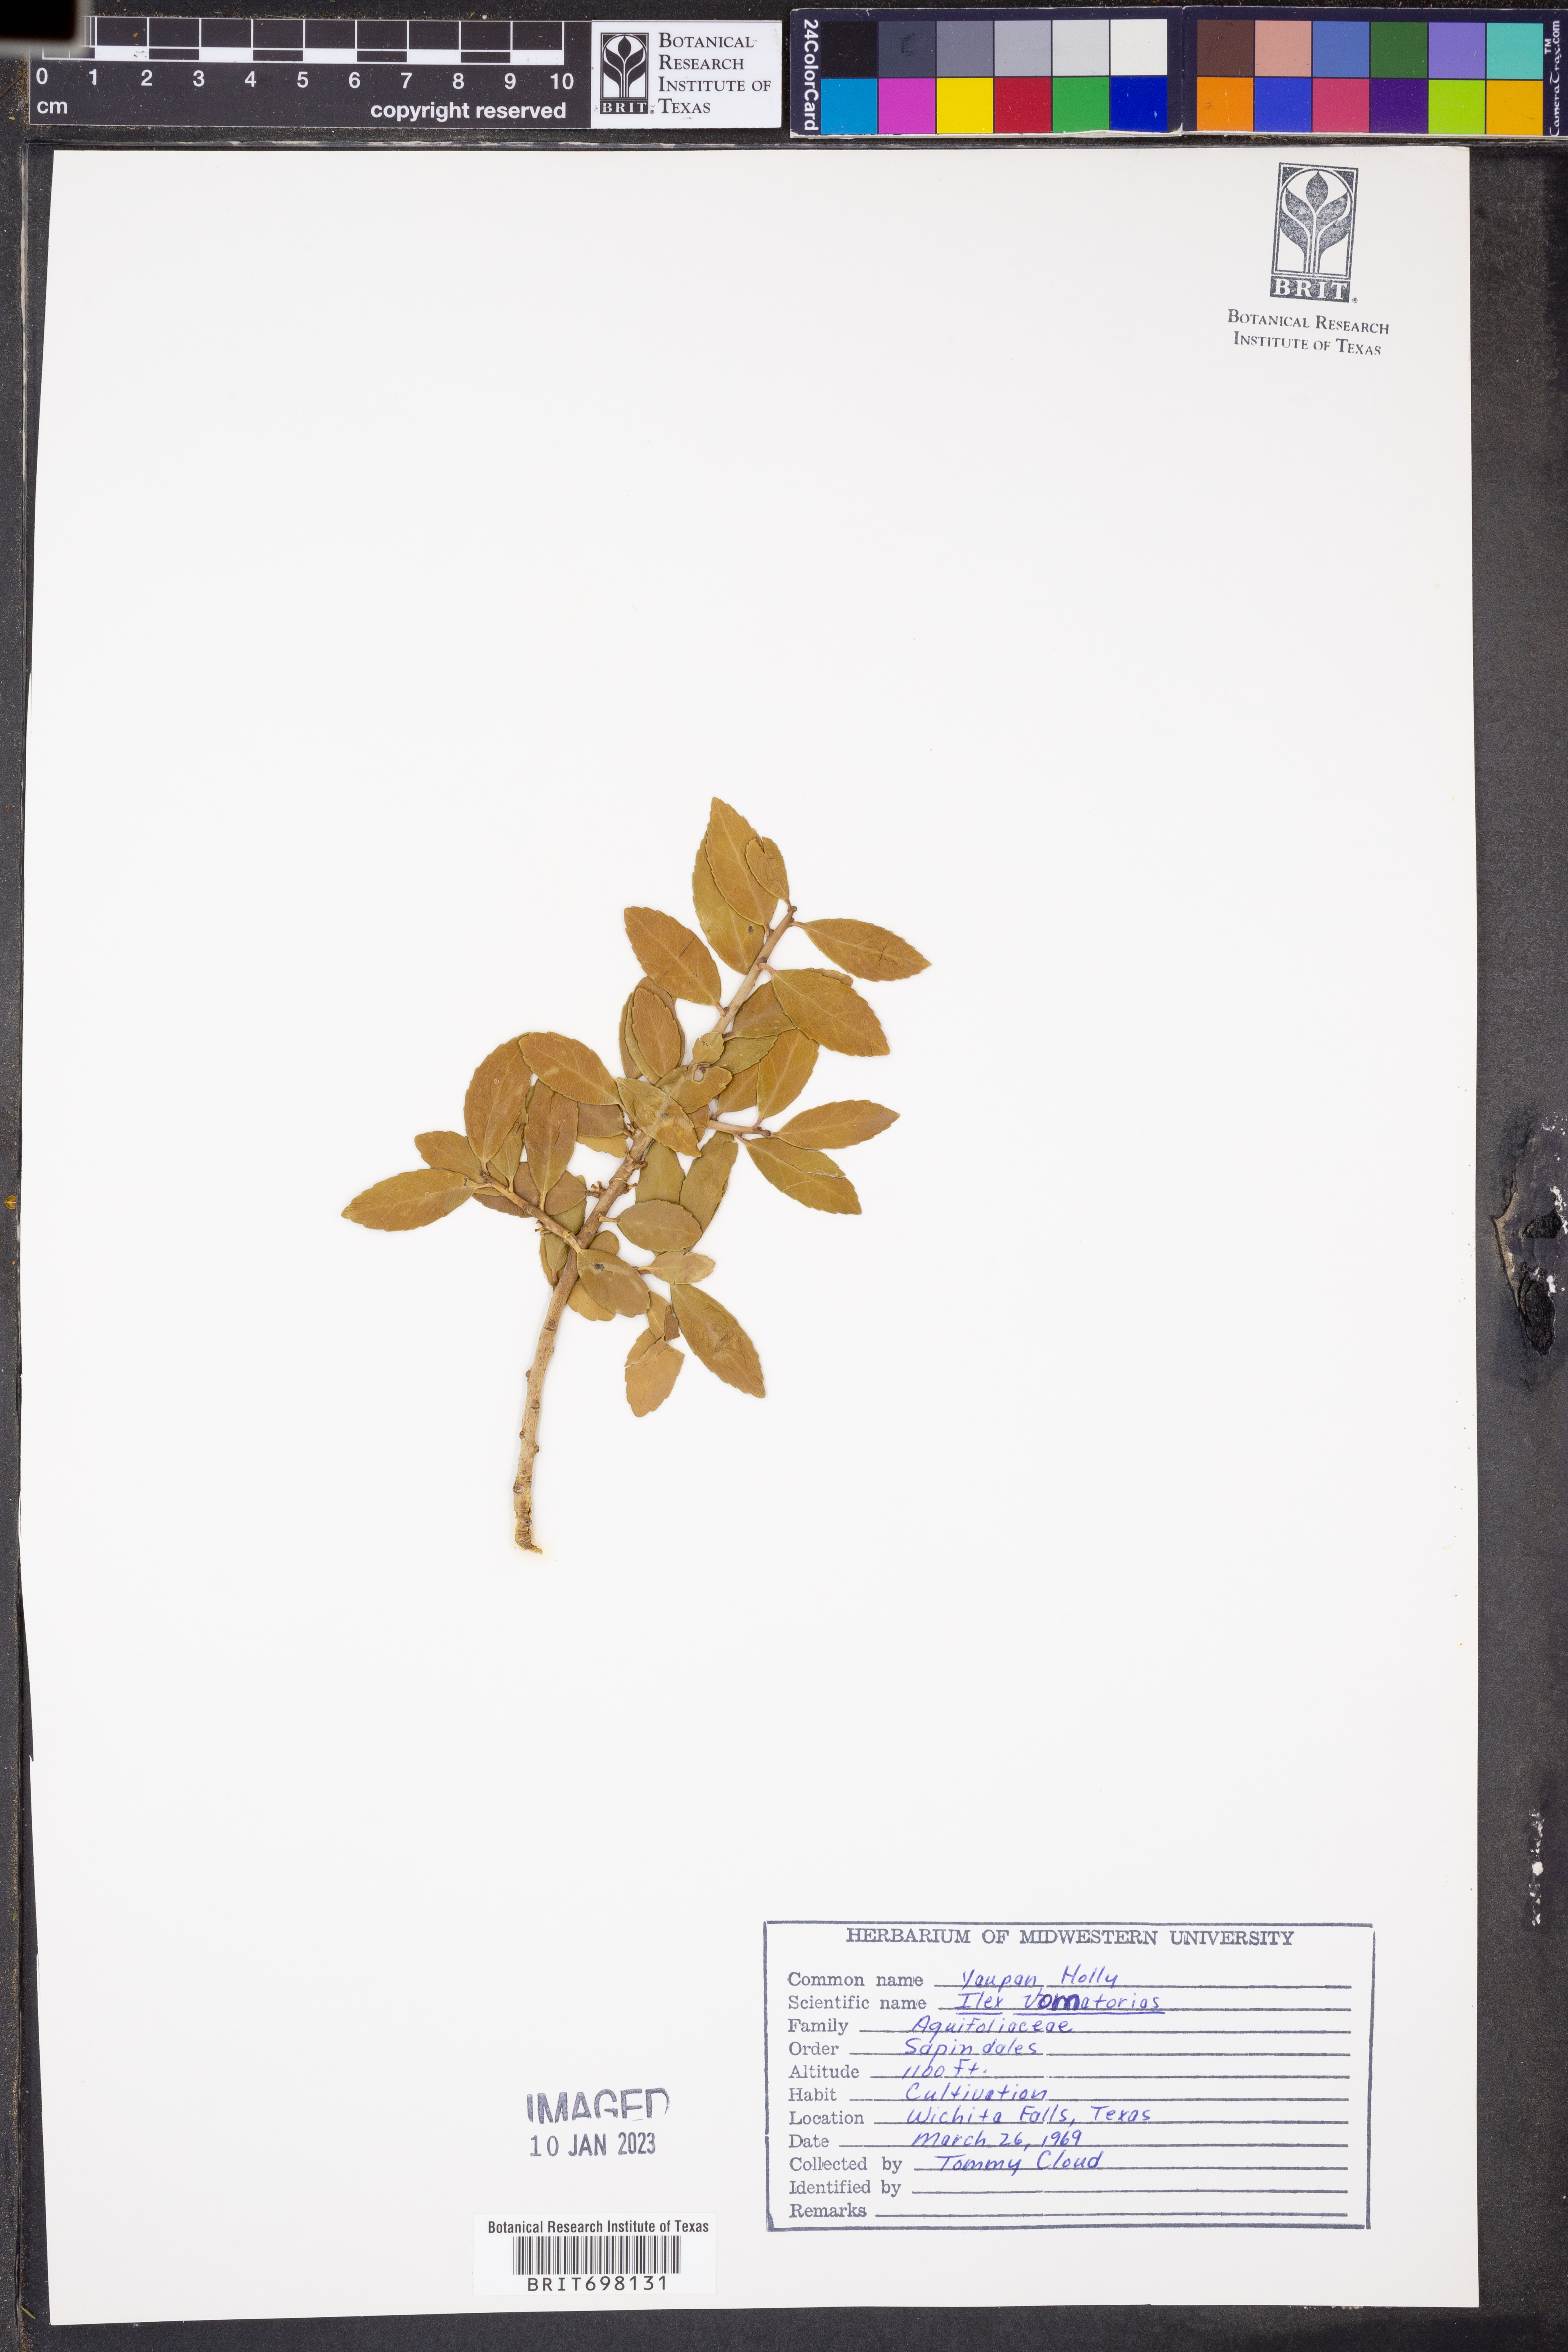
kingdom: Plantae
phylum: Tracheophyta
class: Magnoliopsida
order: Aquifoliales
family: Aquifoliaceae
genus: Ilex
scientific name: Ilex vomitoria
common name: Yaupon holly
